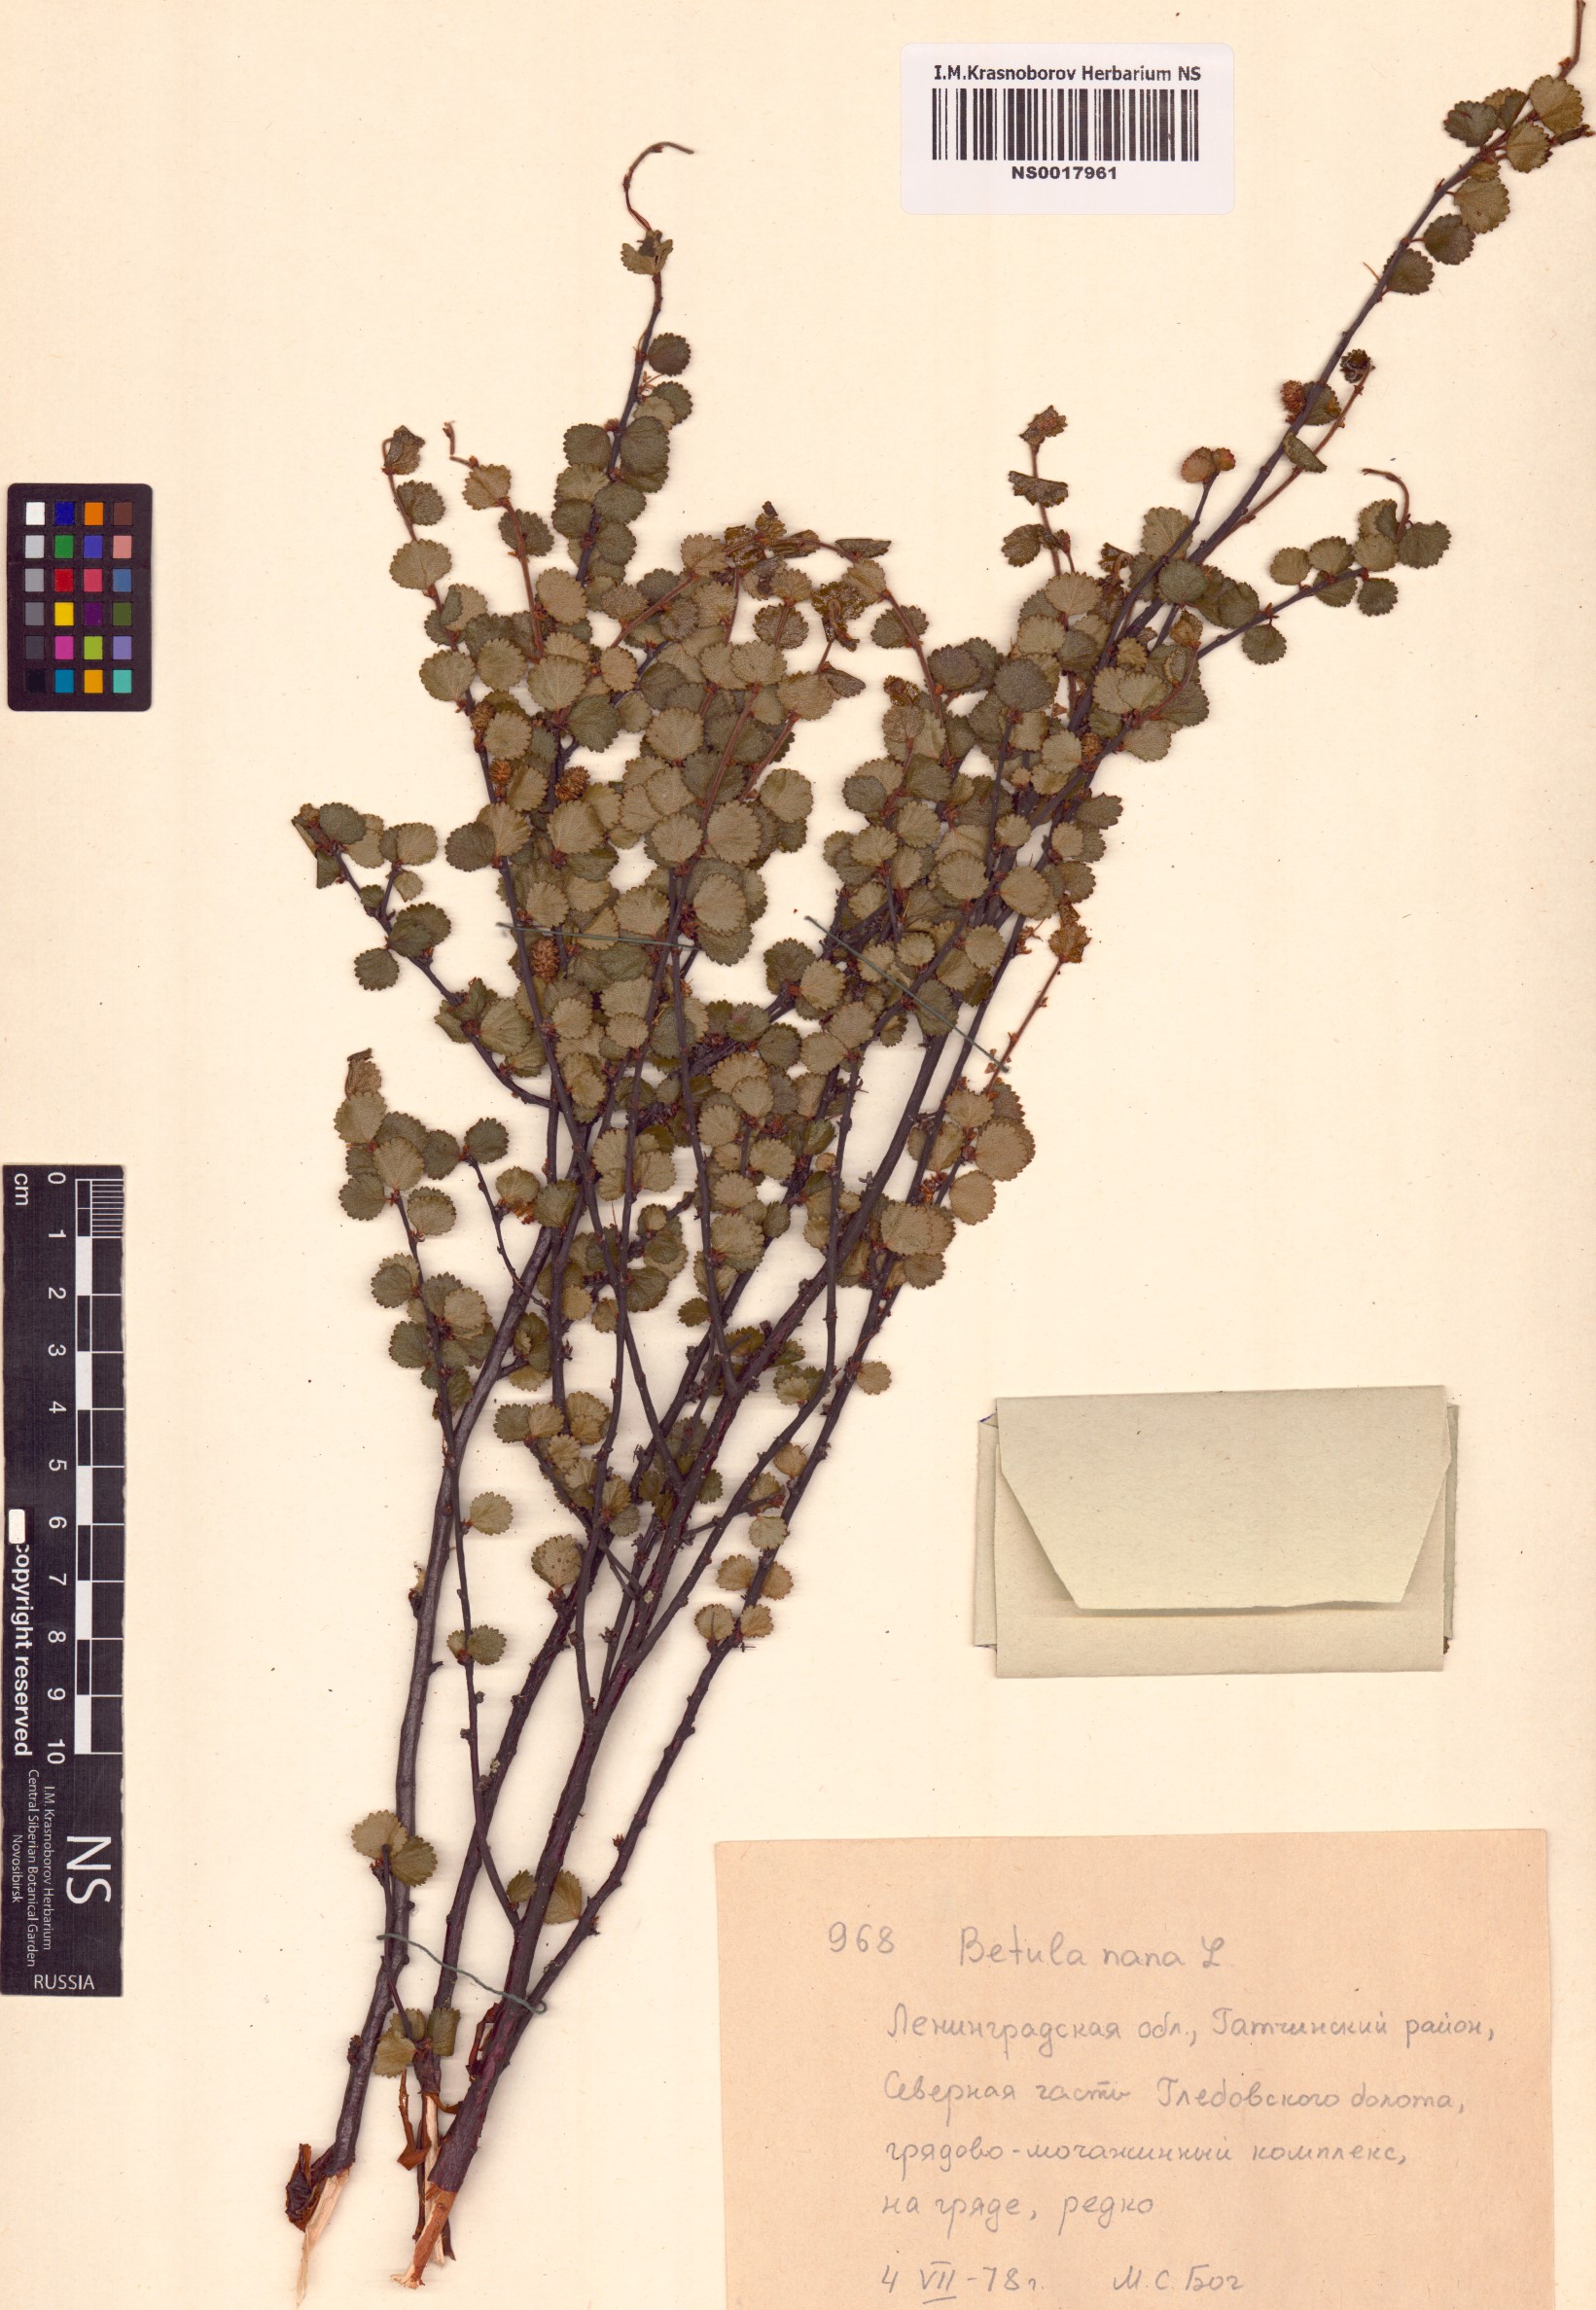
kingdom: Plantae
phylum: Tracheophyta
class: Magnoliopsida
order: Fagales
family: Betulaceae
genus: Betula
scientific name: Betula nana
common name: Arctic dwarf birch
